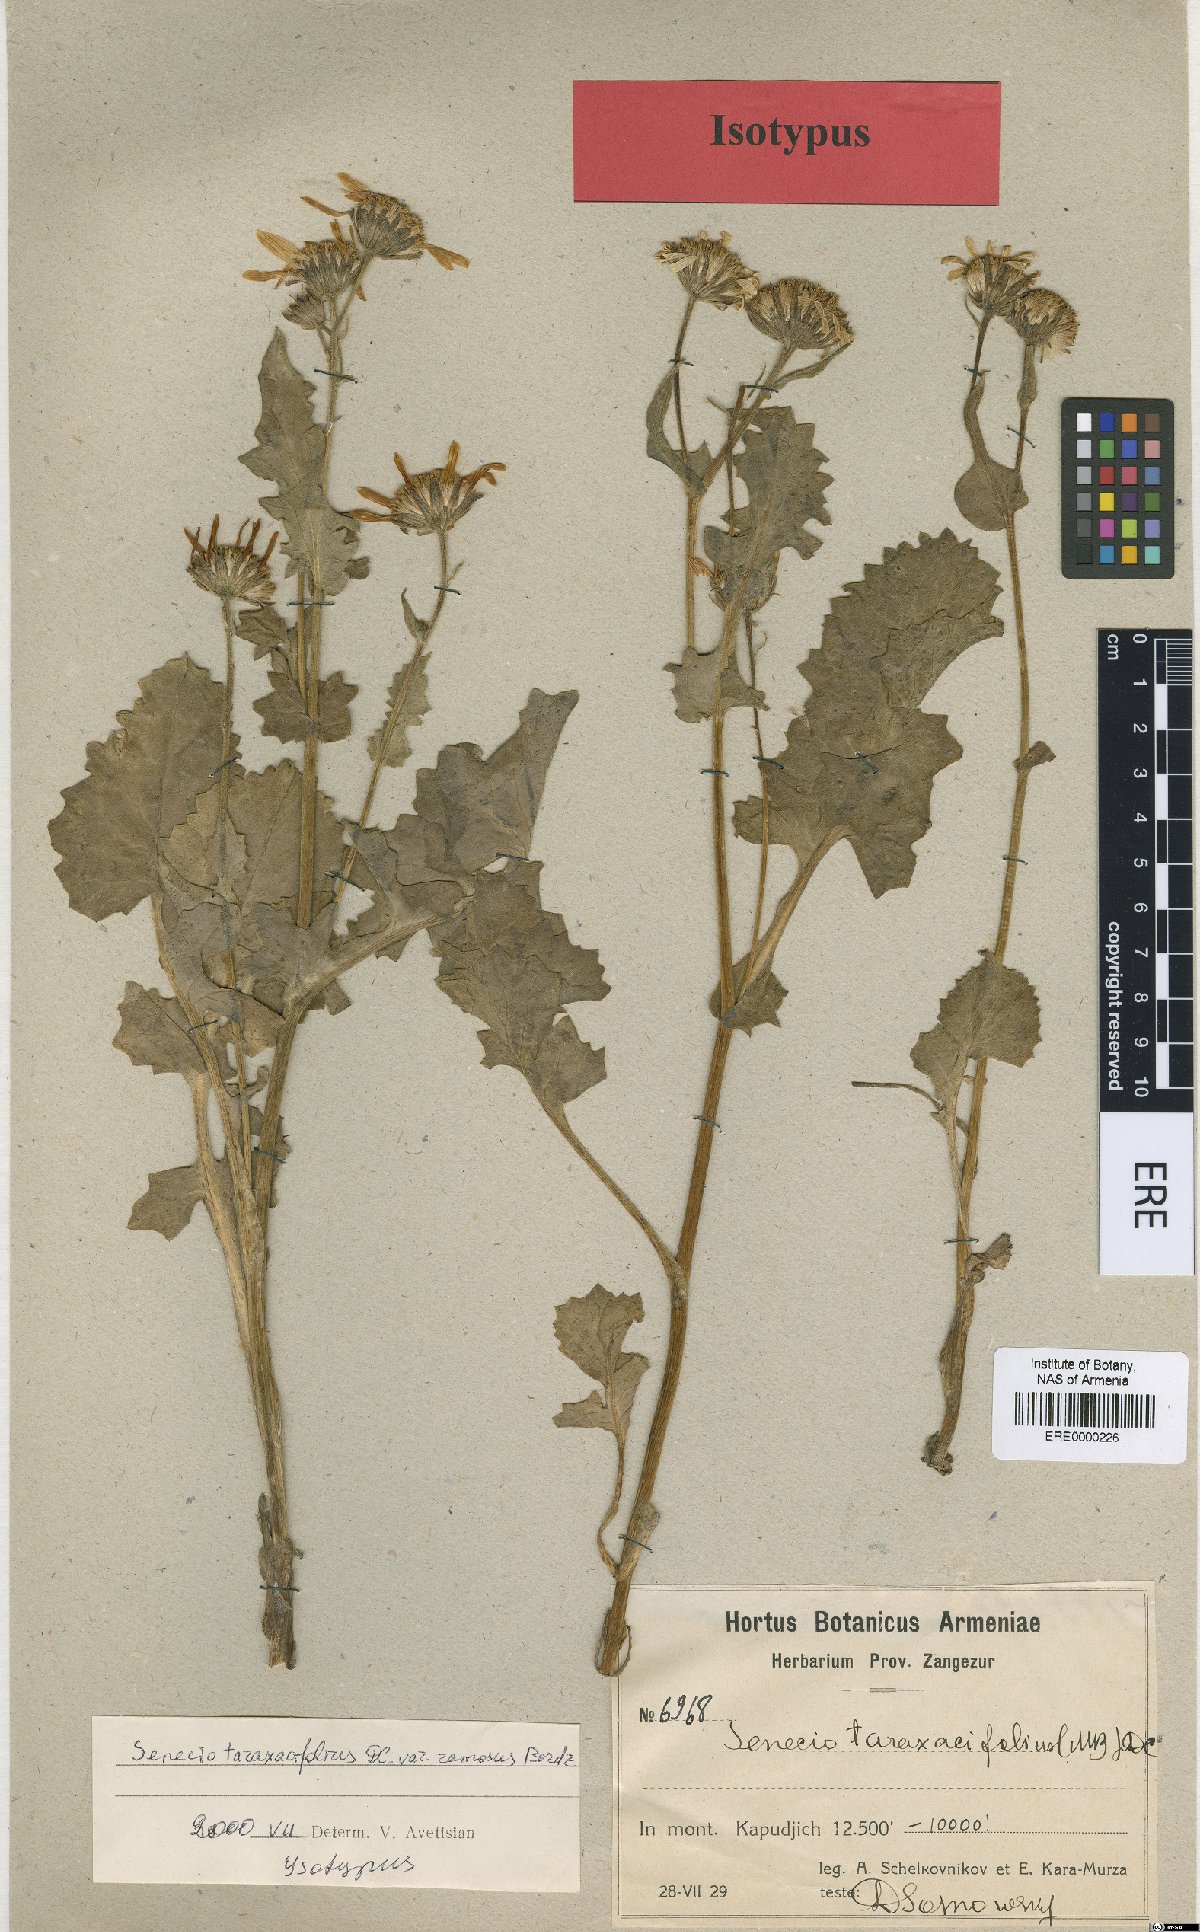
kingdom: Plantae
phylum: Tracheophyta
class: Magnoliopsida
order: Asterales
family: Asteraceae
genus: Turanecio
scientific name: Turanecio taraxacifolius
